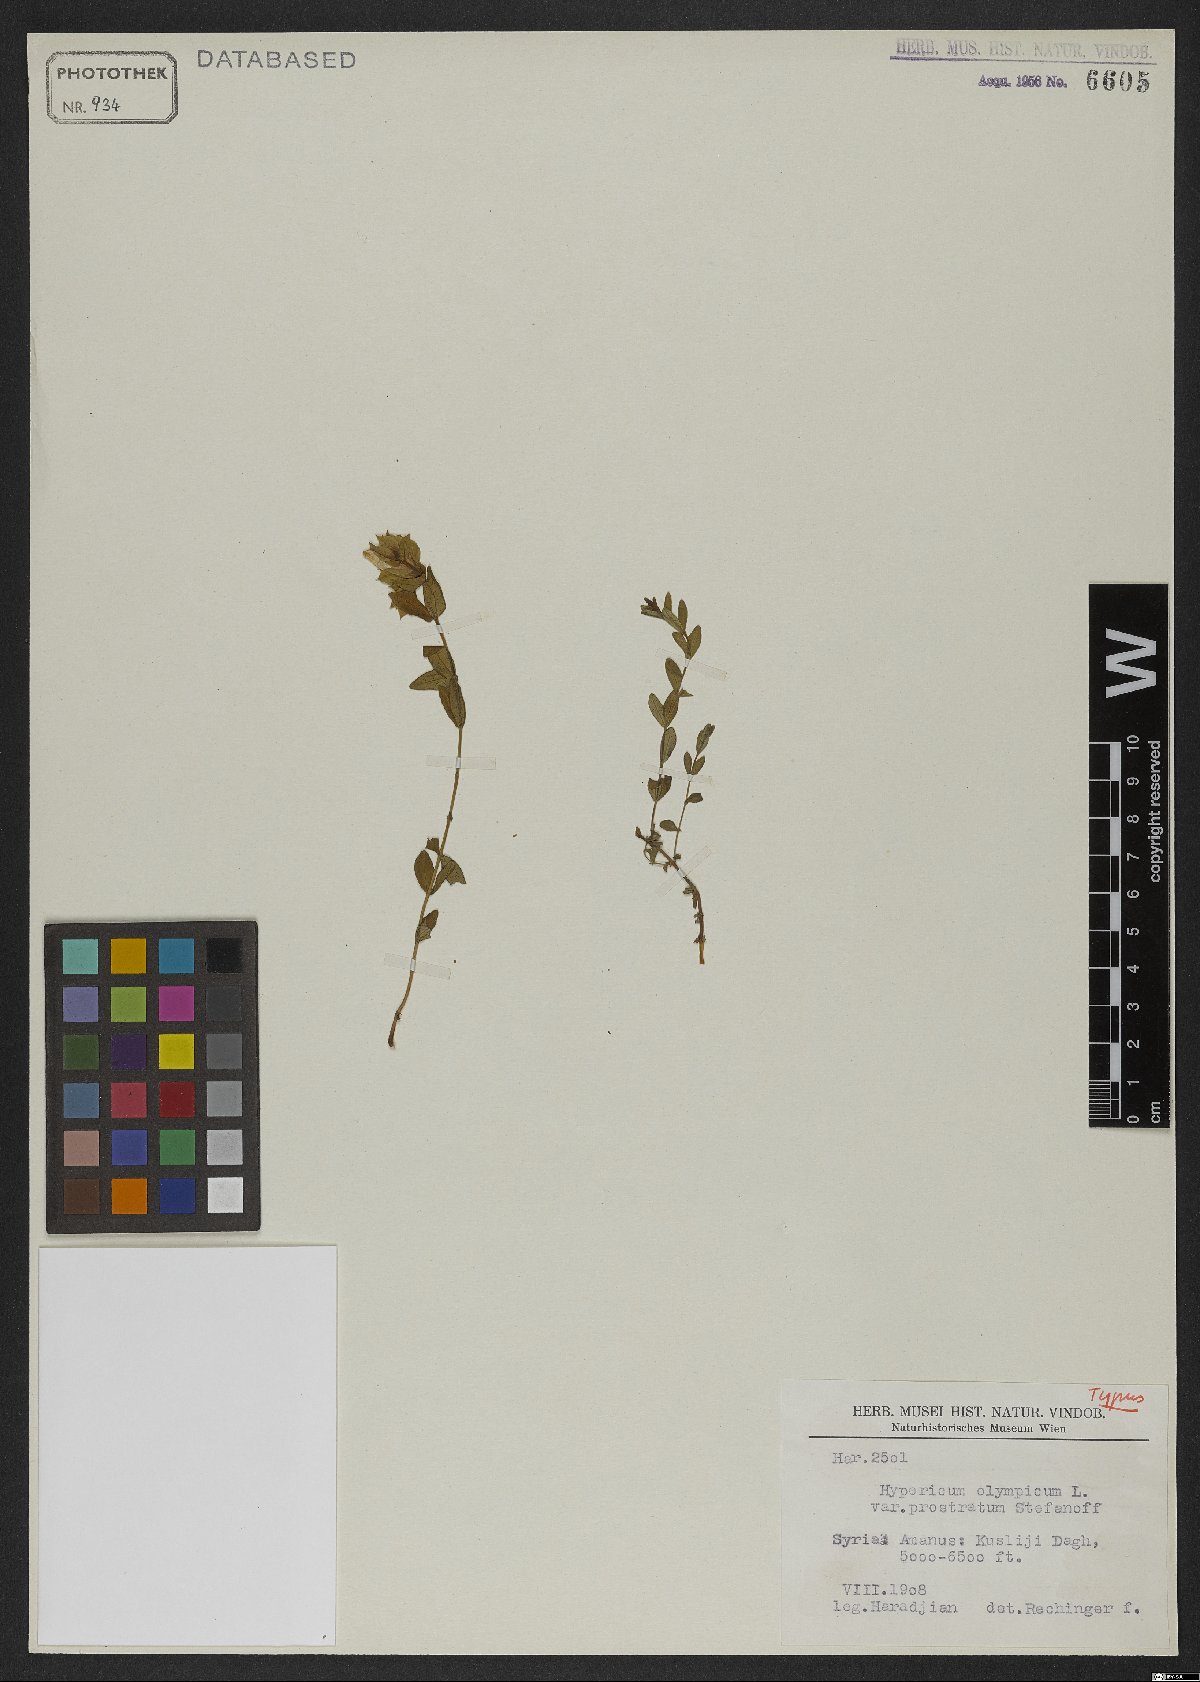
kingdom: Plantae
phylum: Tracheophyta
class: Magnoliopsida
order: Malpighiales
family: Hypericaceae
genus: Hypericum
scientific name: Hypericum olympicum
